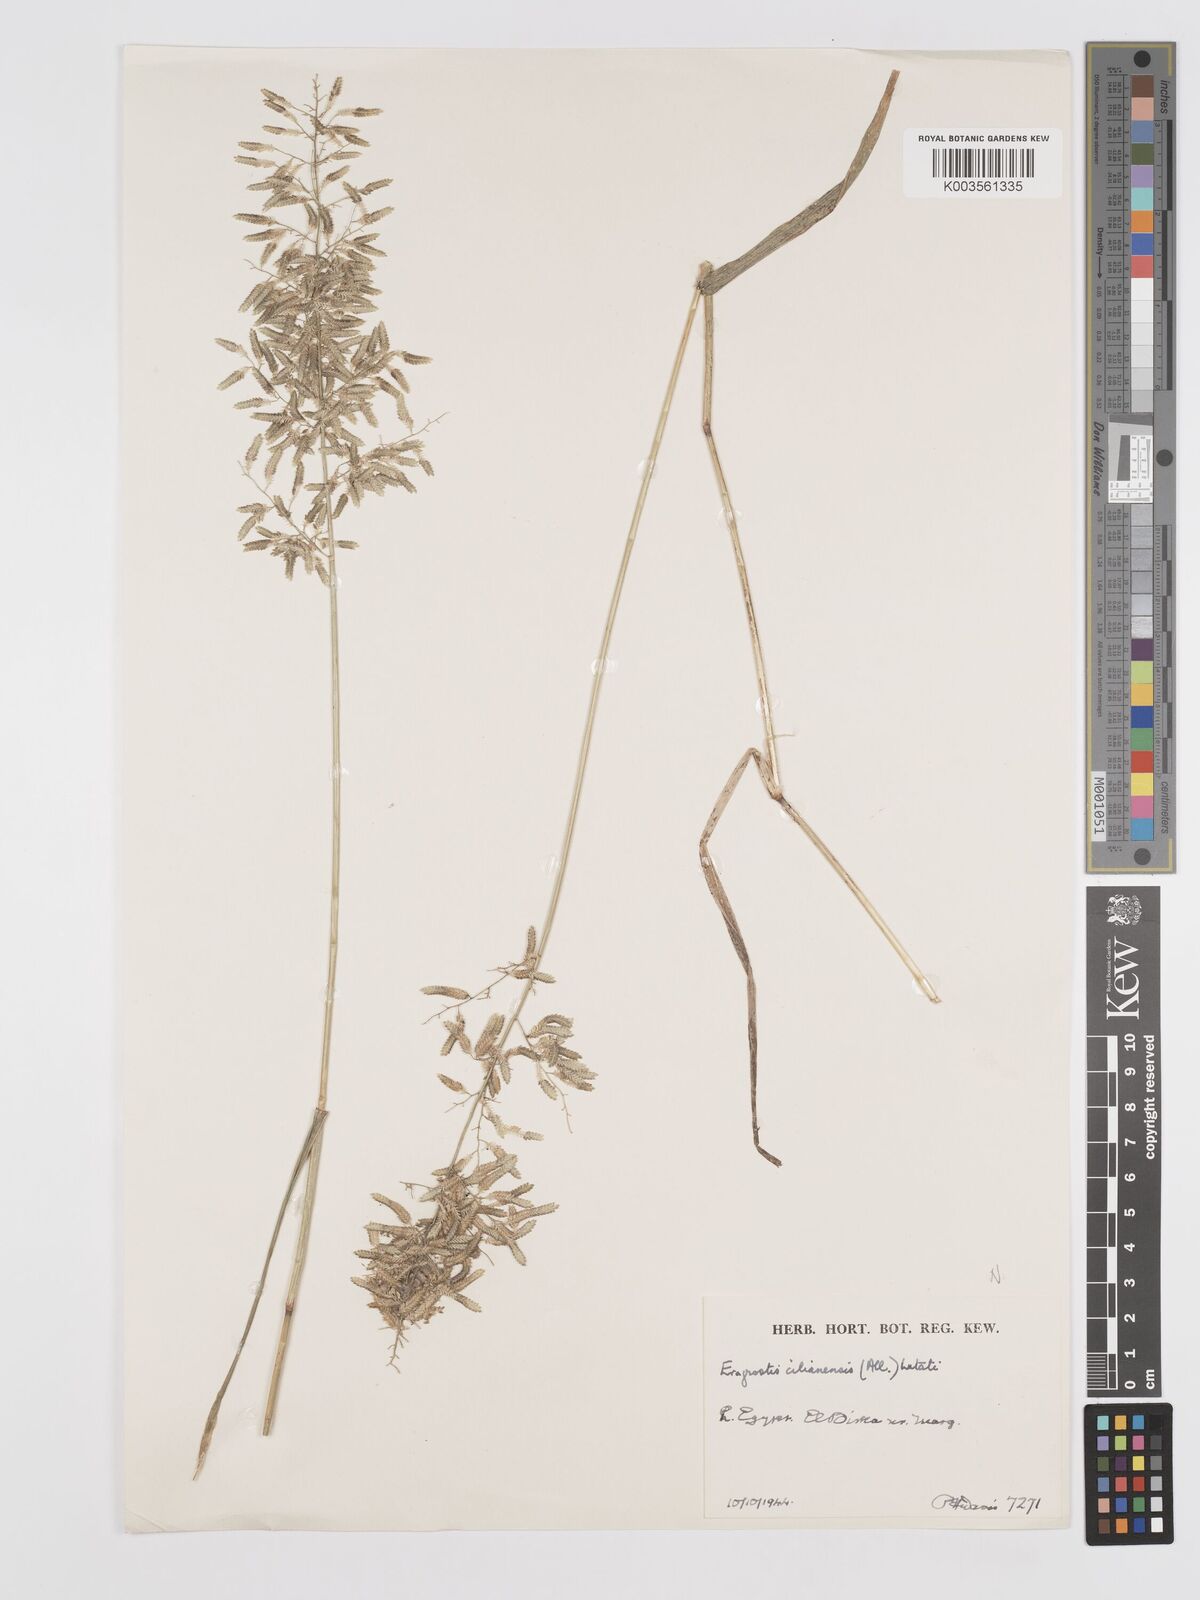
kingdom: Plantae
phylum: Tracheophyta
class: Liliopsida
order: Poales
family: Poaceae
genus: Eragrostis
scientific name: Eragrostis cilianensis
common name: Stinkgrass
